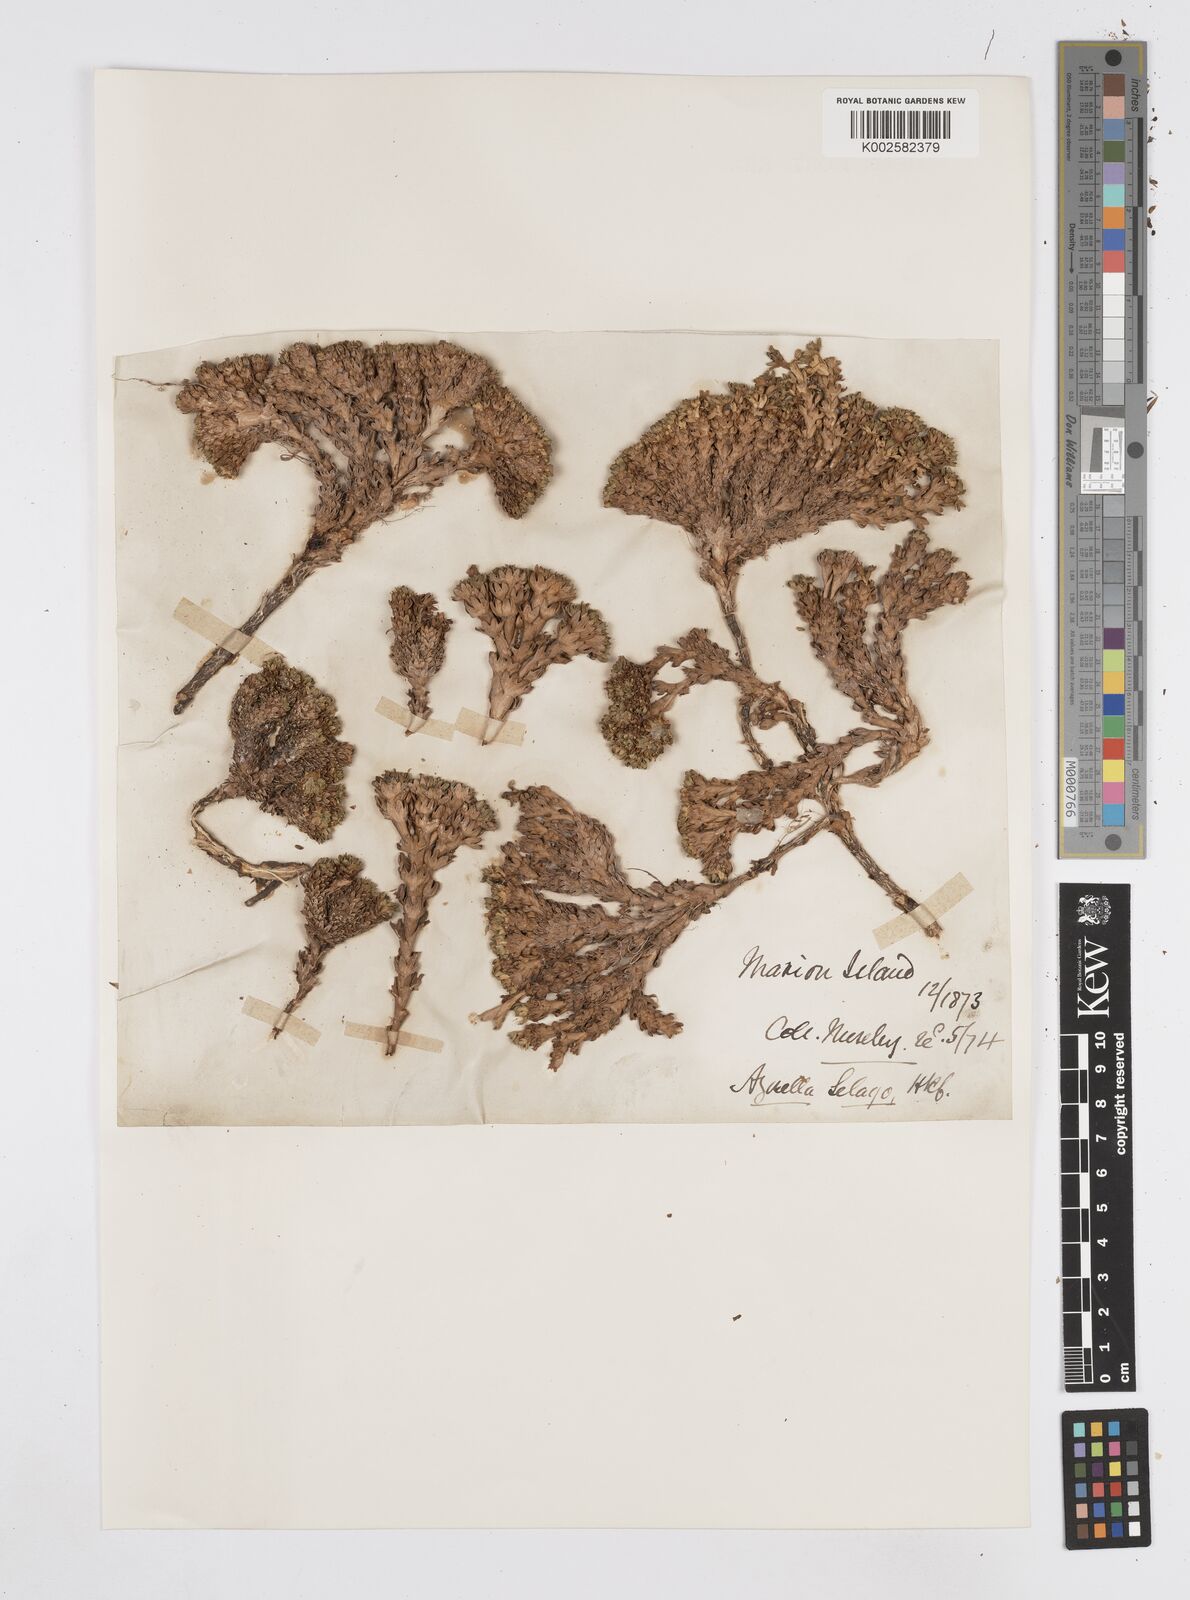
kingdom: Plantae
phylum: Tracheophyta
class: Magnoliopsida
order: Apiales
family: Apiaceae
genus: Azorella
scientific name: Azorella selago
